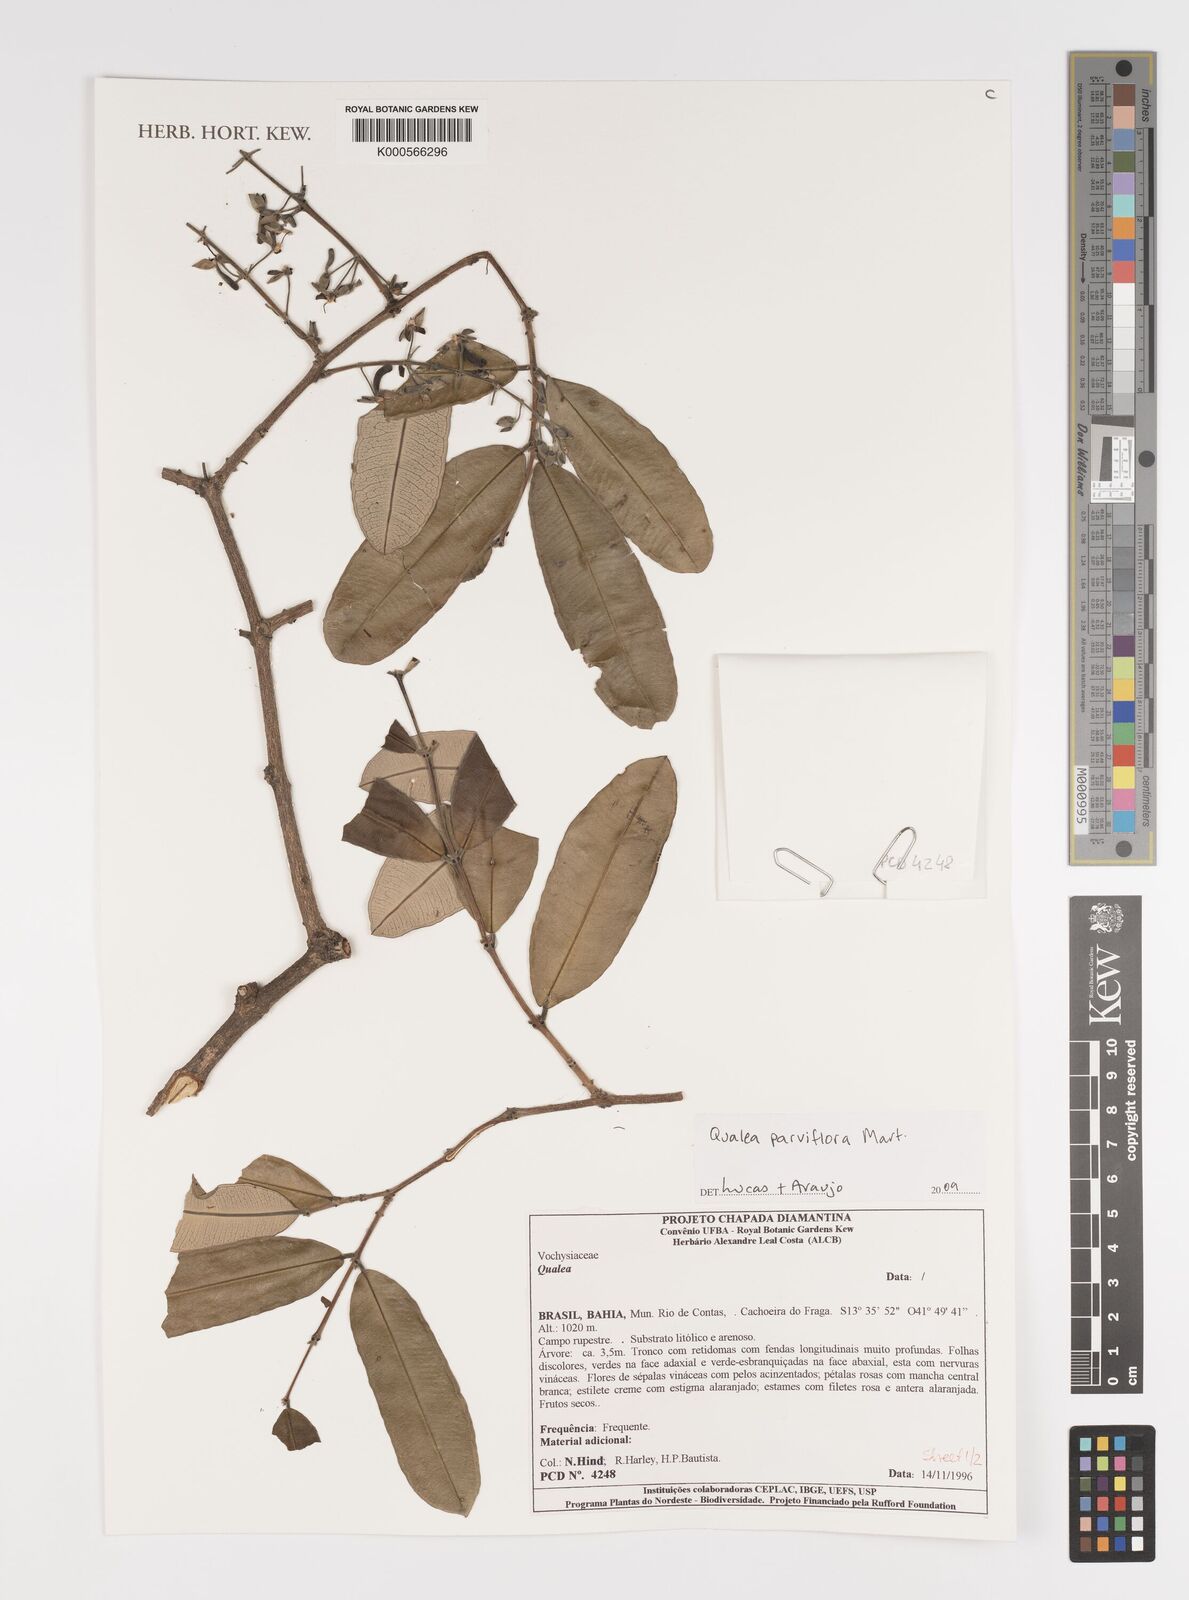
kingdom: Plantae
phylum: Tracheophyta
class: Magnoliopsida
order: Myrtales
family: Vochysiaceae
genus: Qualea
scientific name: Qualea parviflora
